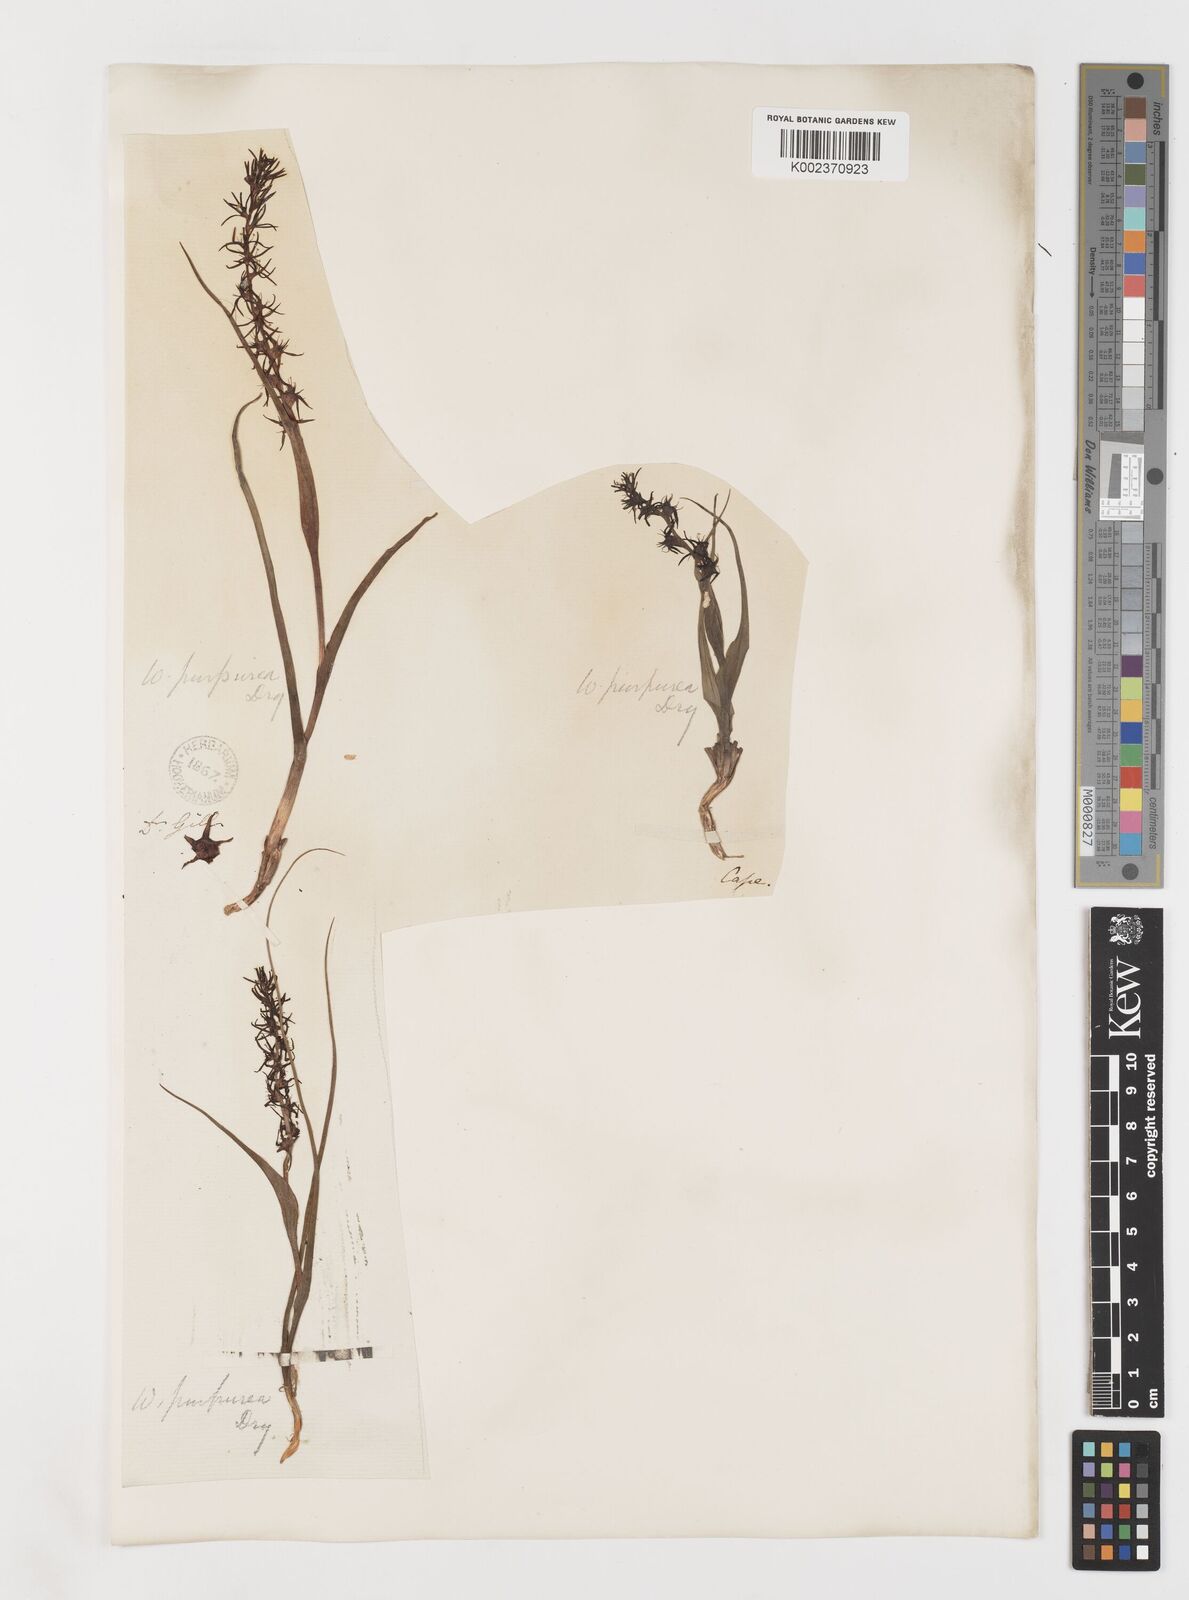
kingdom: Plantae
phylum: Tracheophyta
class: Liliopsida
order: Liliales
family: Colchicaceae
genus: Wurmbea
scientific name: Wurmbea marginata
